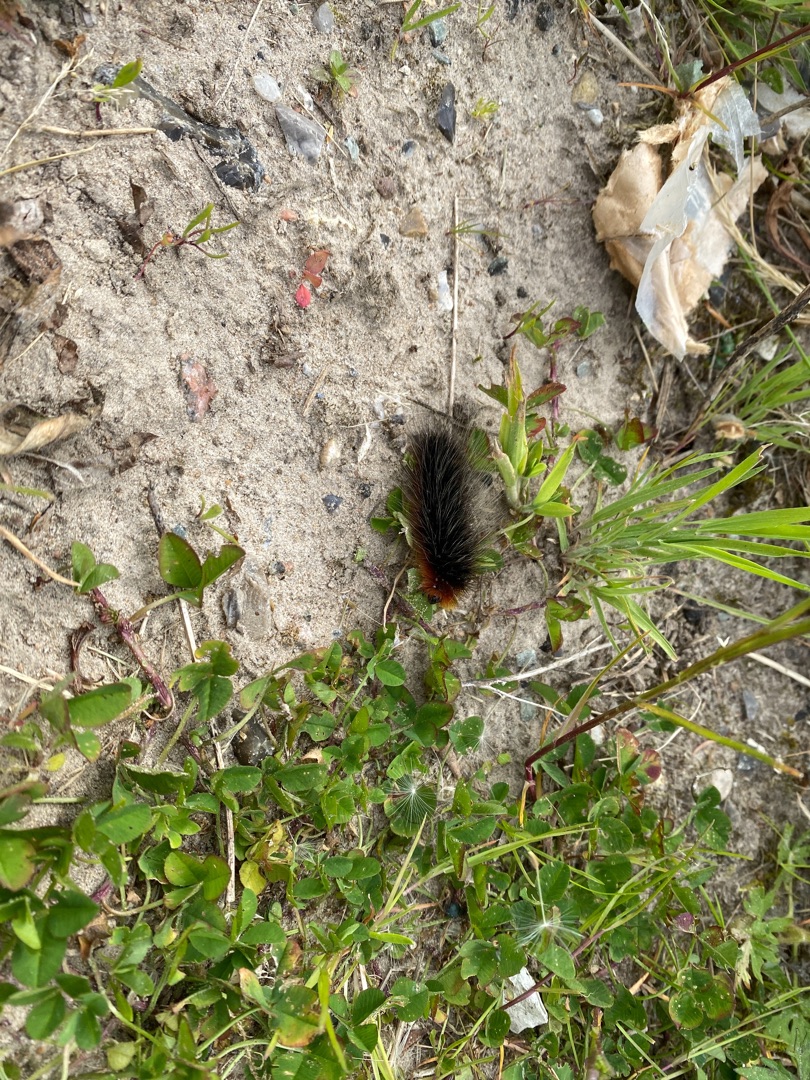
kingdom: Animalia
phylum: Arthropoda
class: Insecta
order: Lepidoptera
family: Erebidae
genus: Arctia
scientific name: Arctia caja
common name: Brun bjørn
